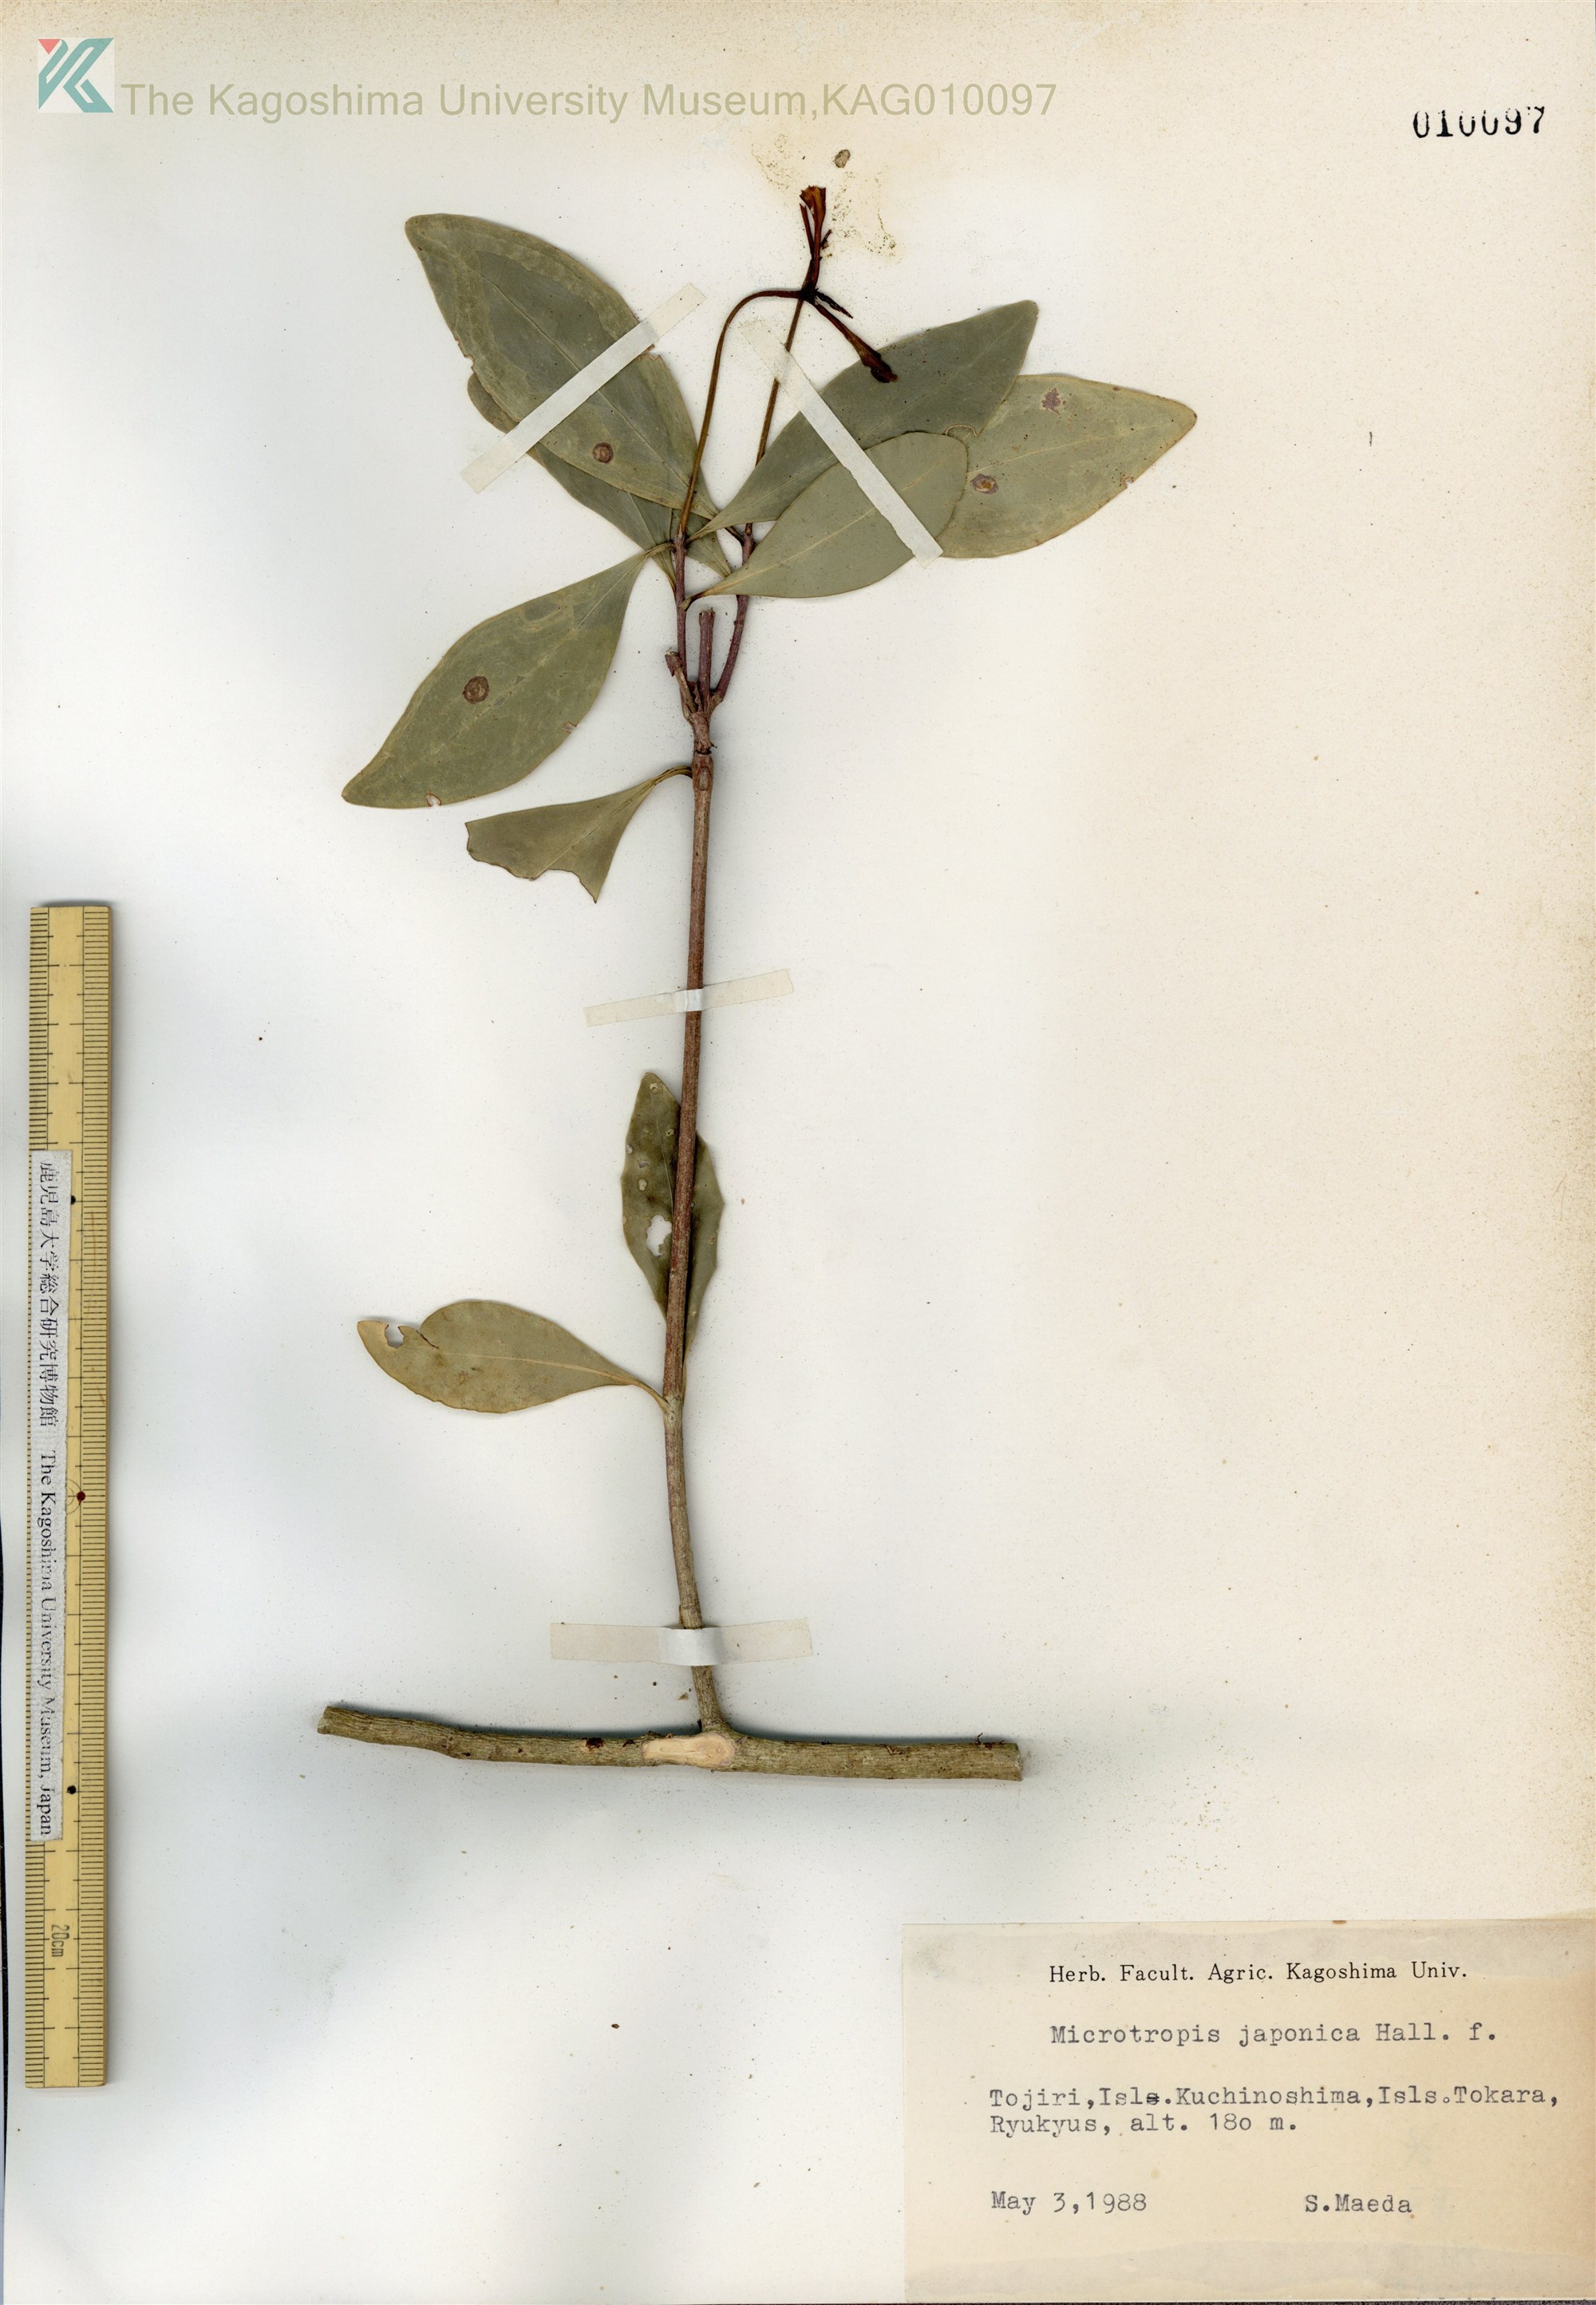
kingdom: Plantae
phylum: Tracheophyta
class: Magnoliopsida
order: Celastrales
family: Celastraceae
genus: Microtropis
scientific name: Microtropis japonica
